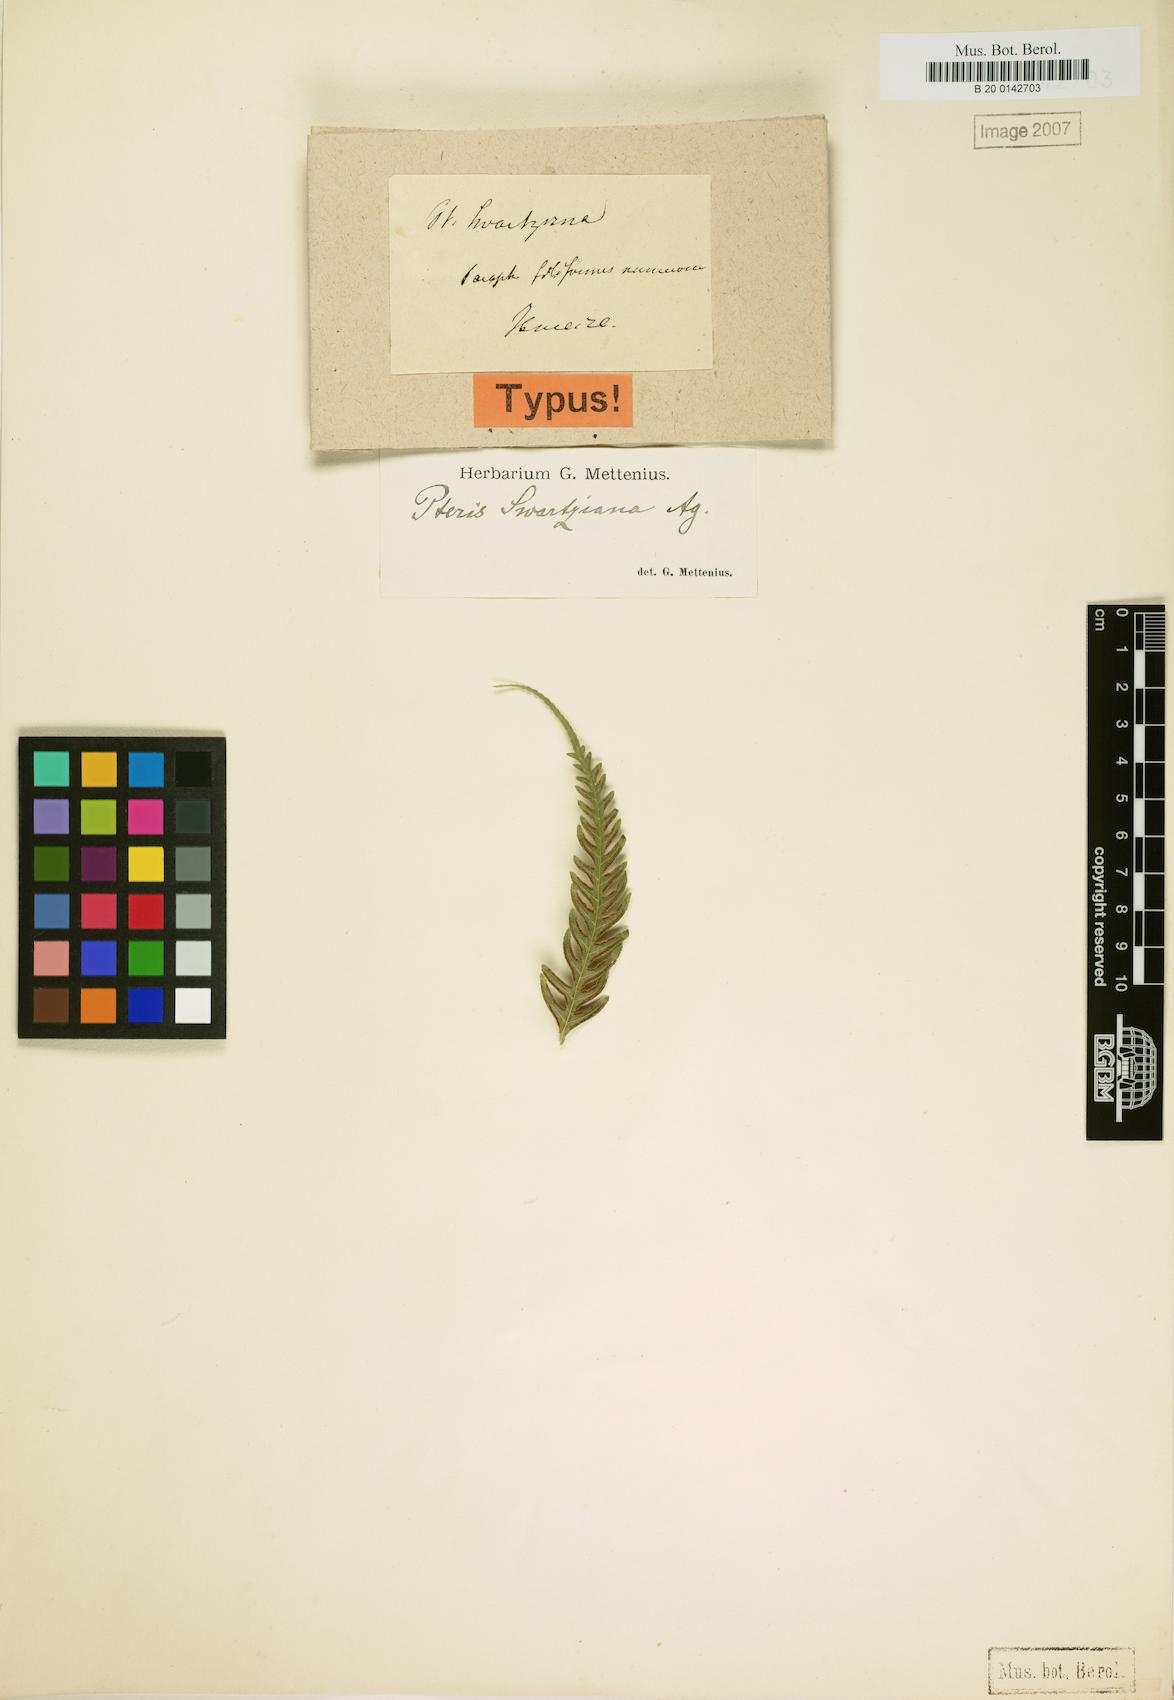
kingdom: Plantae
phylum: Tracheophyta
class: Polypodiopsida
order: Polypodiales
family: Pteridaceae
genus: Pteris
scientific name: Pteris swartziana
